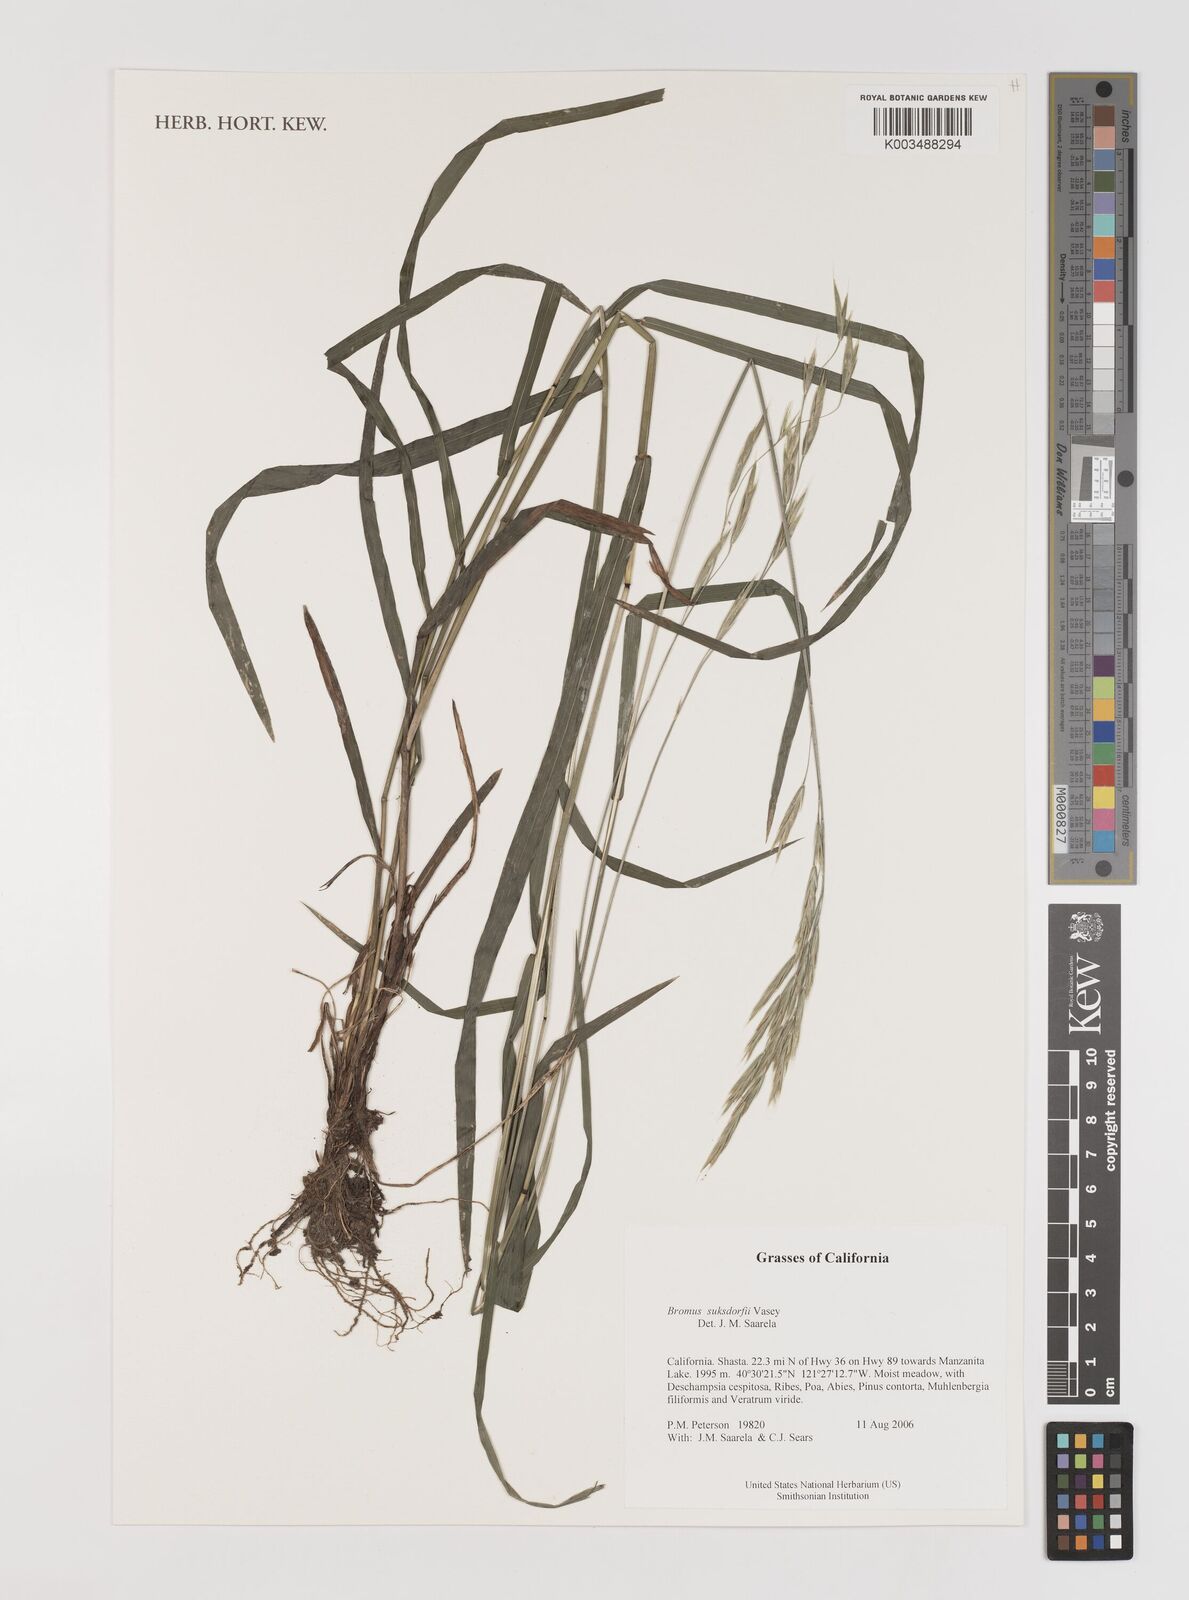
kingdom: Plantae
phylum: Tracheophyta
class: Liliopsida
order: Poales
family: Poaceae
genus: Bromus
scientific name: Bromus suksdorfii
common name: Suksdorf's brome
